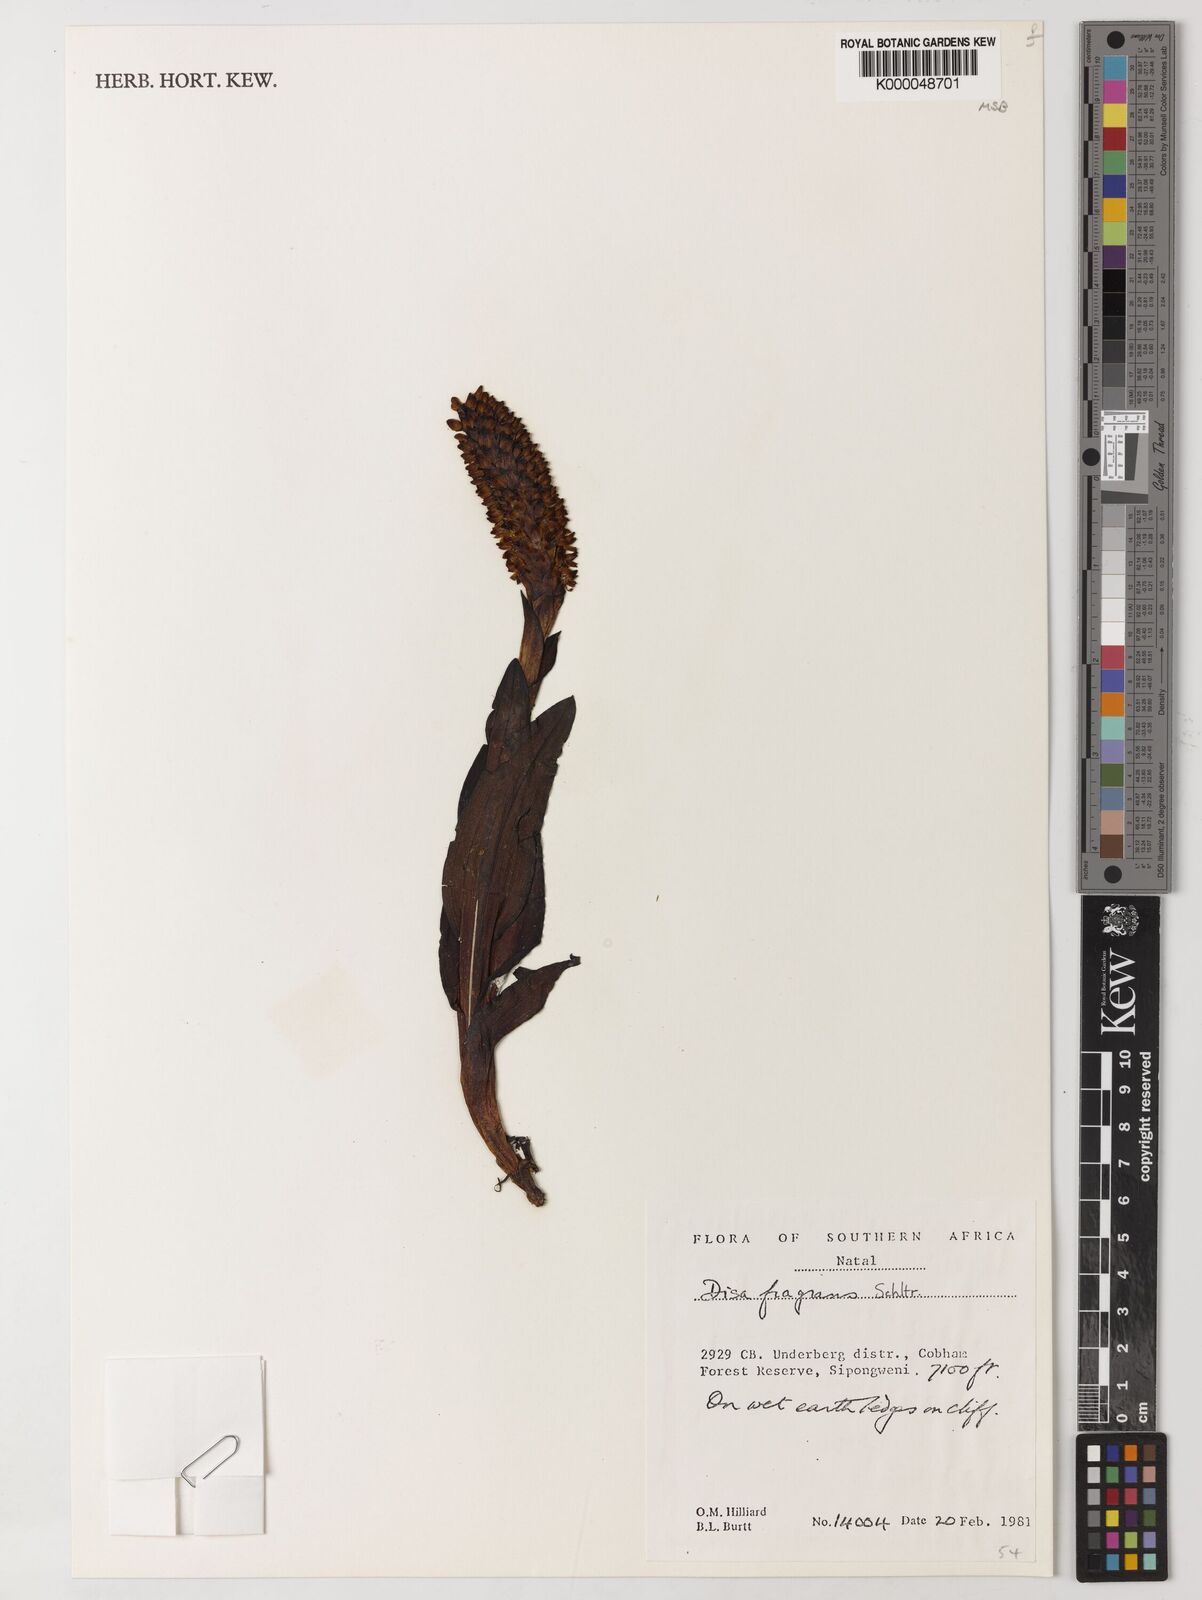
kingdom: Plantae
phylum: Tracheophyta
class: Liliopsida
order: Asparagales
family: Orchidaceae
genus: Disa
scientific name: Disa fragrans
